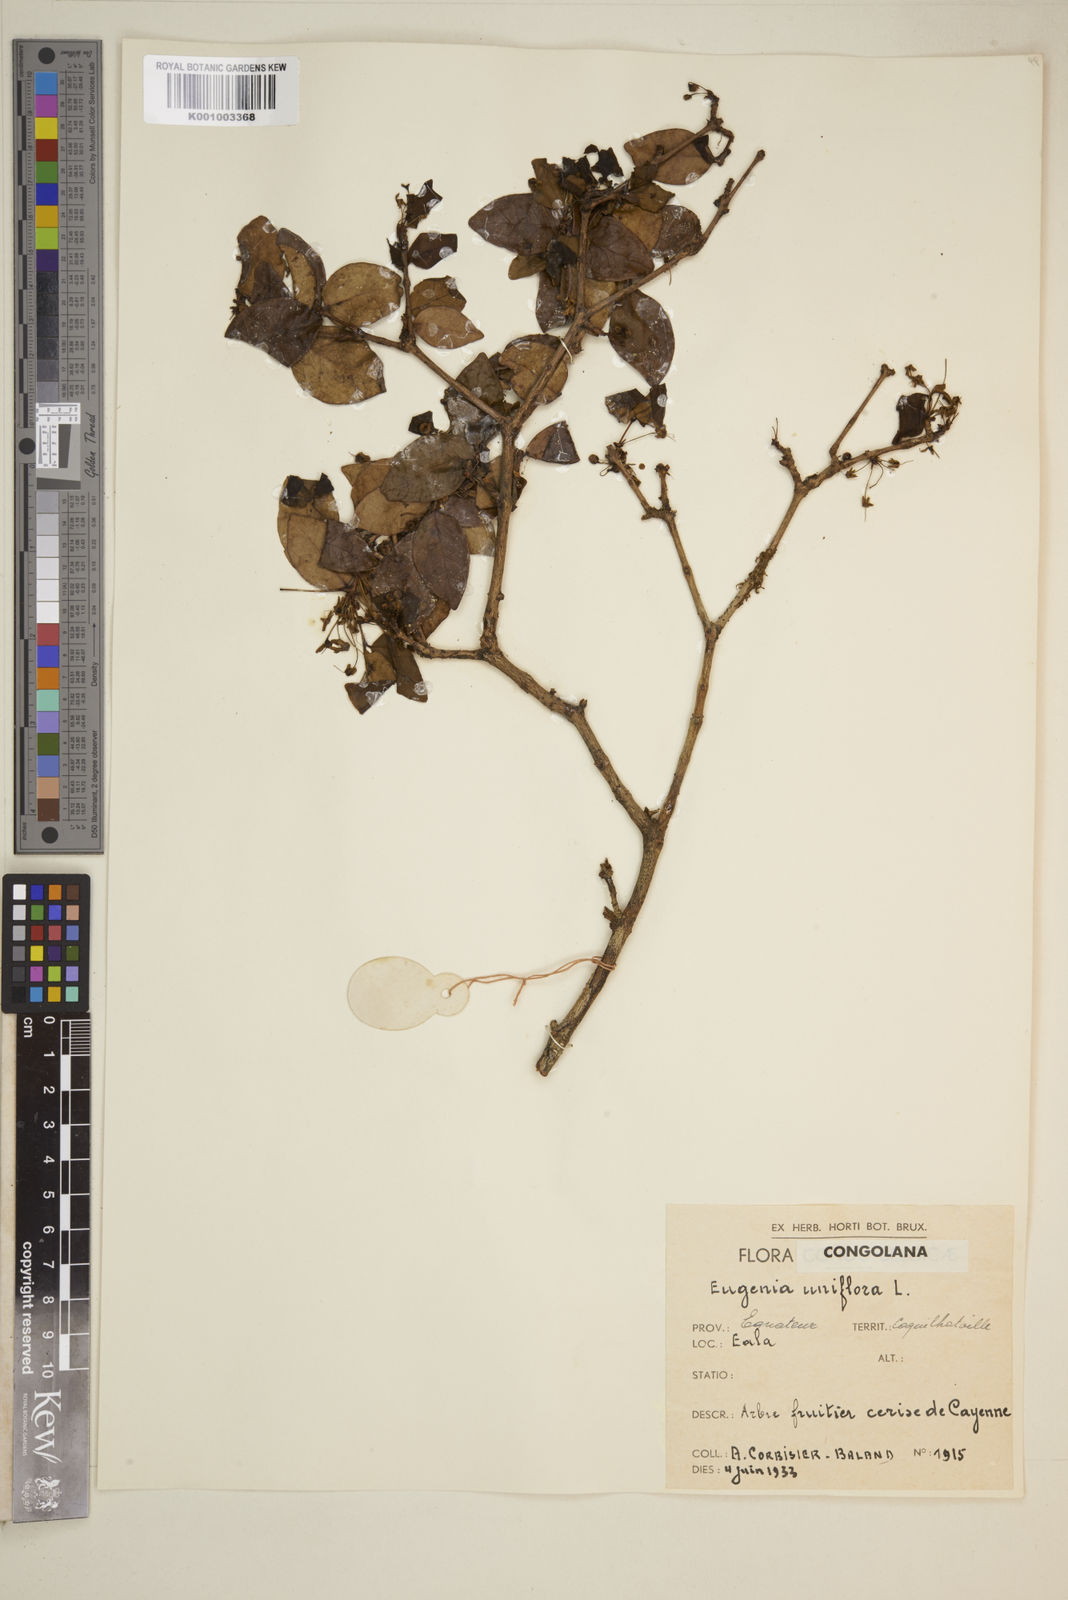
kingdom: Plantae
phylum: Tracheophyta
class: Magnoliopsida
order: Myrtales
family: Myrtaceae
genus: Eugenia
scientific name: Eugenia uniflora
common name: Surinam cherry
